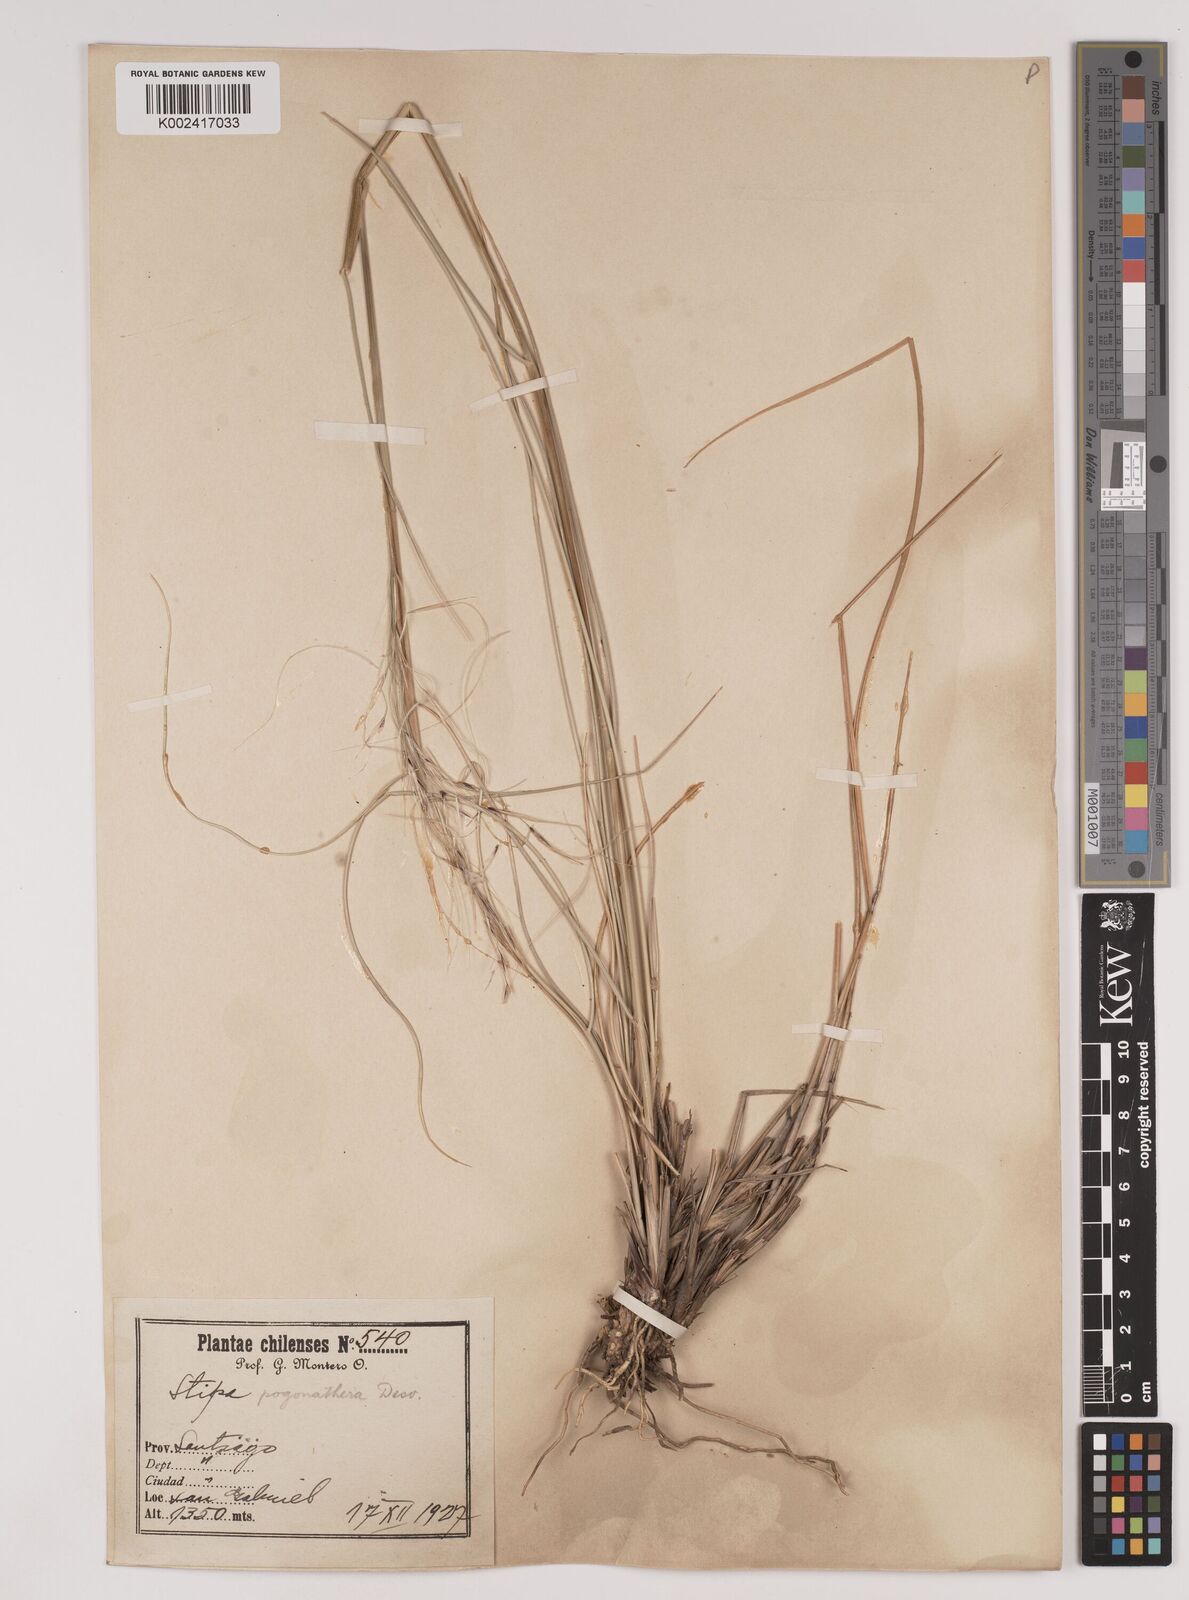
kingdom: Plantae
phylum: Tracheophyta
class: Liliopsida
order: Poales
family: Poaceae
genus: Stipa
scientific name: Stipa pogonathera
